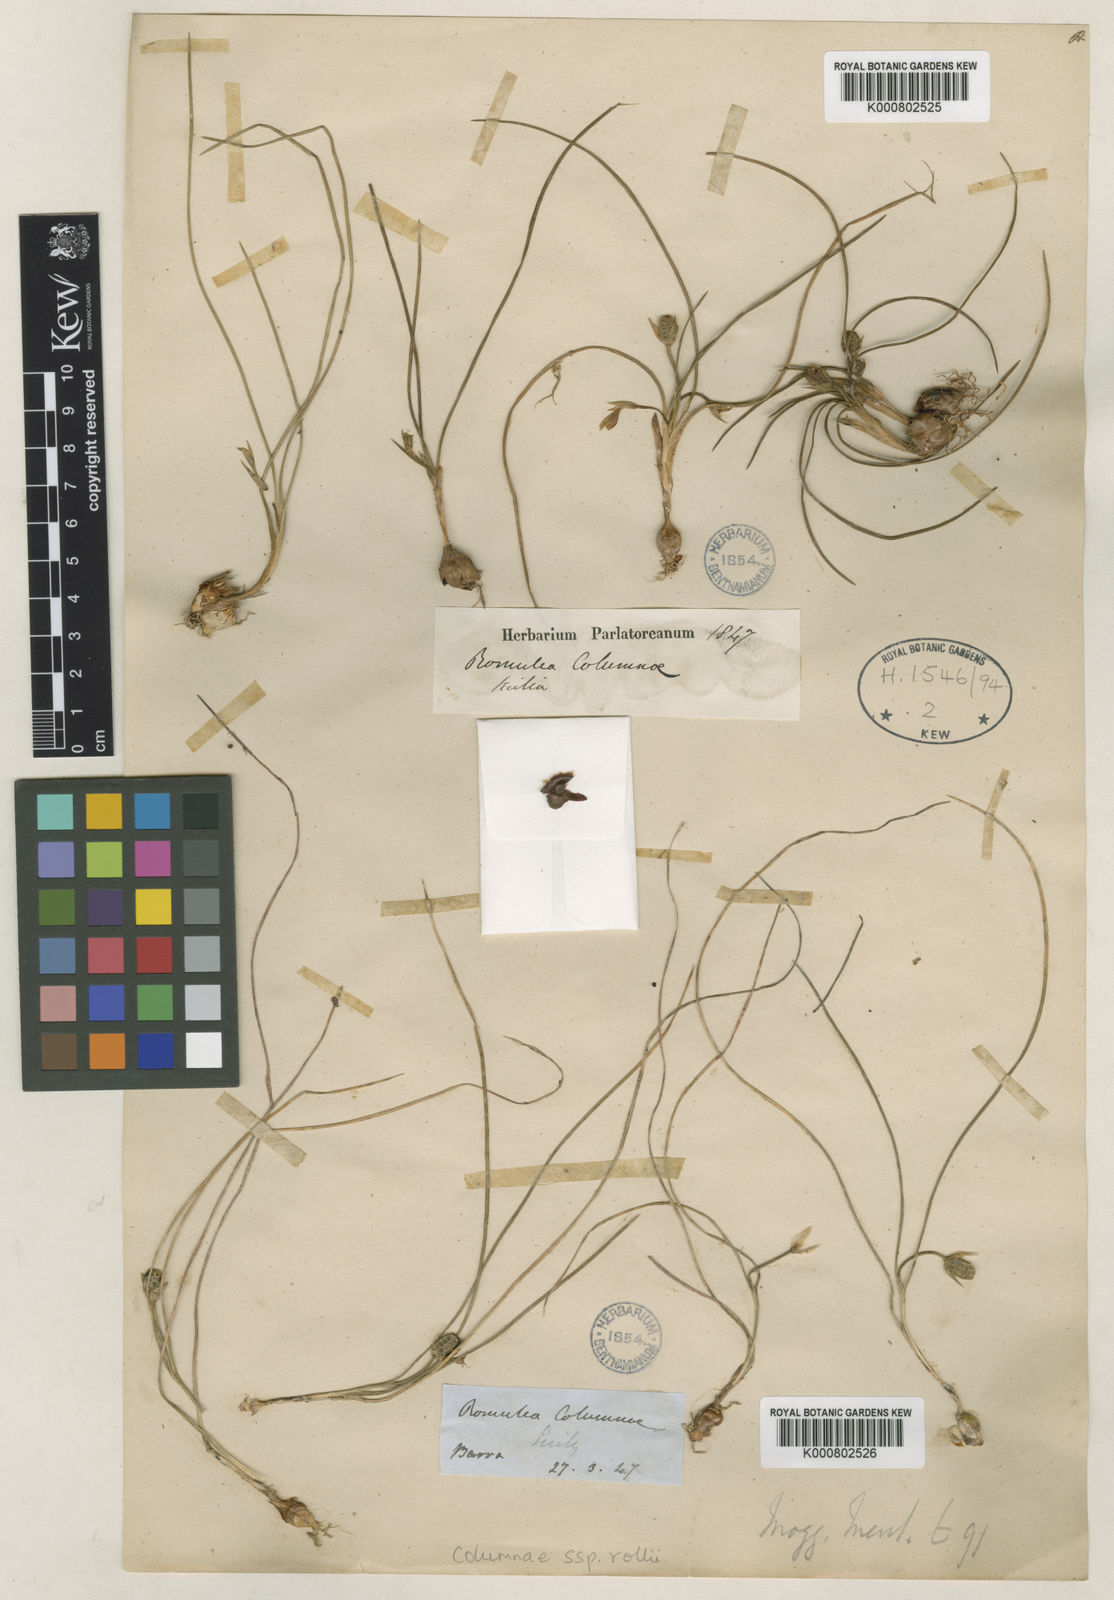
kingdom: Plantae
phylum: Tracheophyta
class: Liliopsida
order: Asparagales
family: Iridaceae
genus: Romulea
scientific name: Romulea columnae
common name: Sand-crocus
